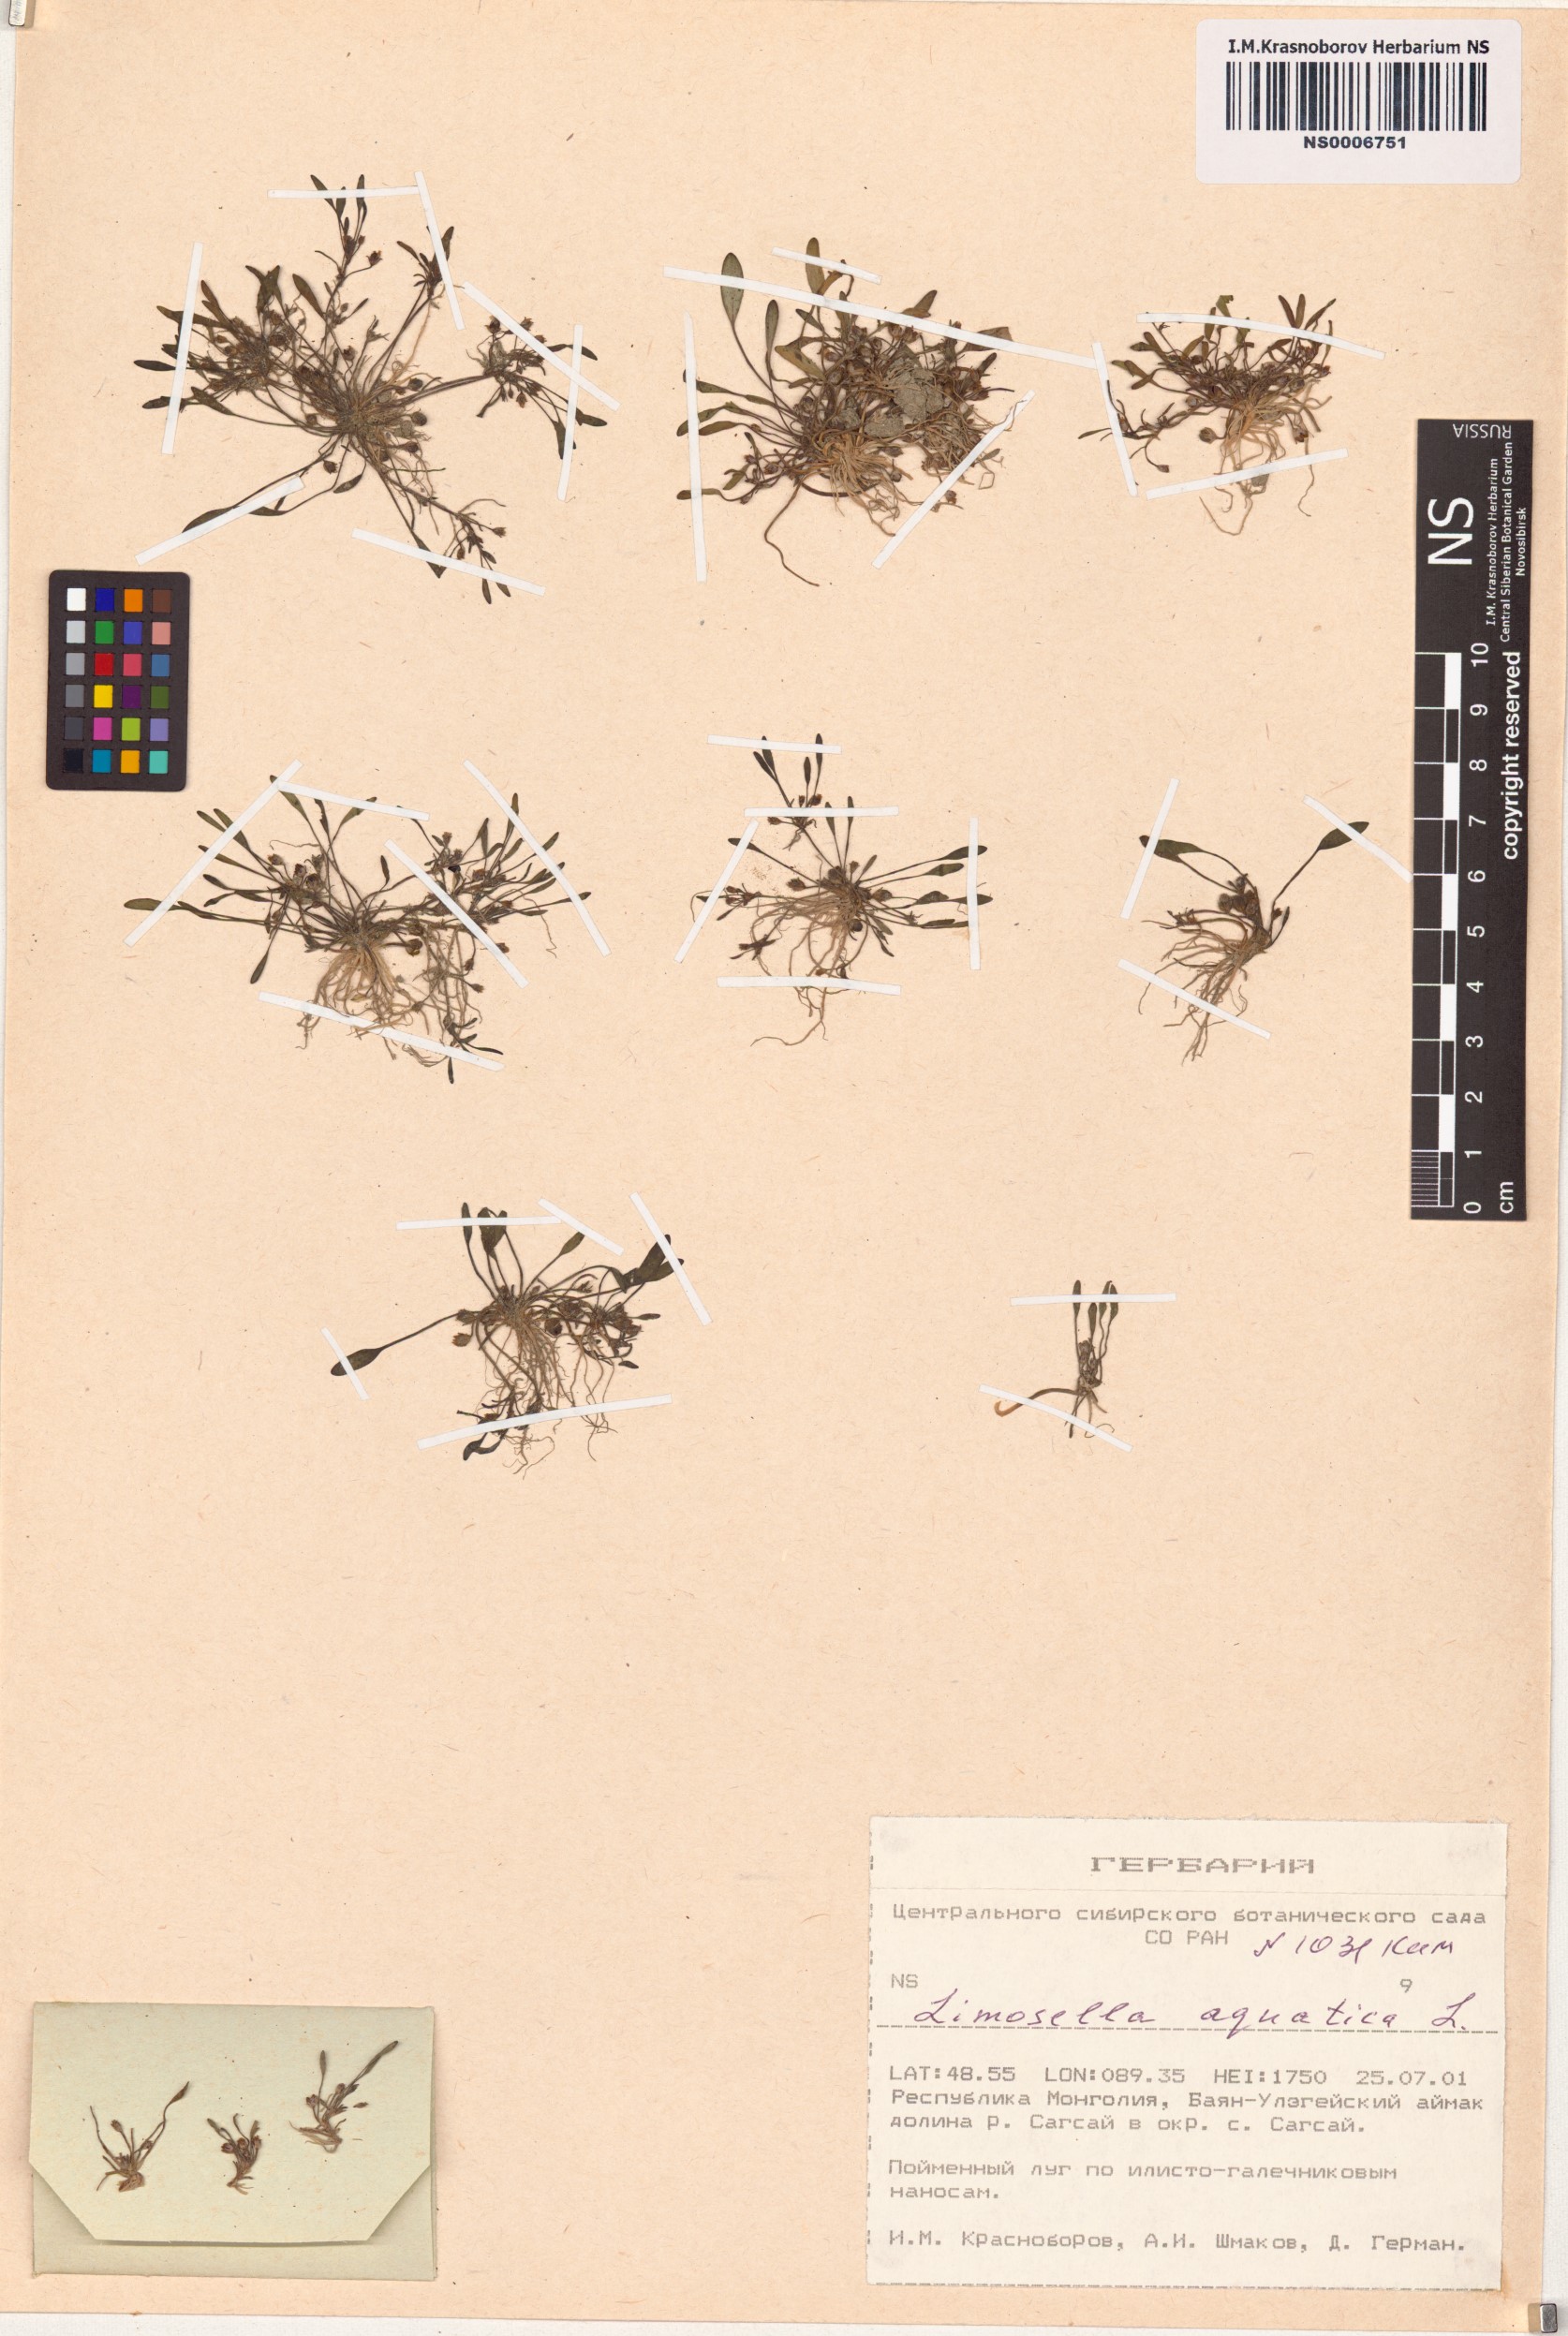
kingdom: Plantae
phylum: Tracheophyta
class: Magnoliopsida
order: Lamiales
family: Scrophulariaceae
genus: Limosella
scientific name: Limosella aquatica
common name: Mudwort
